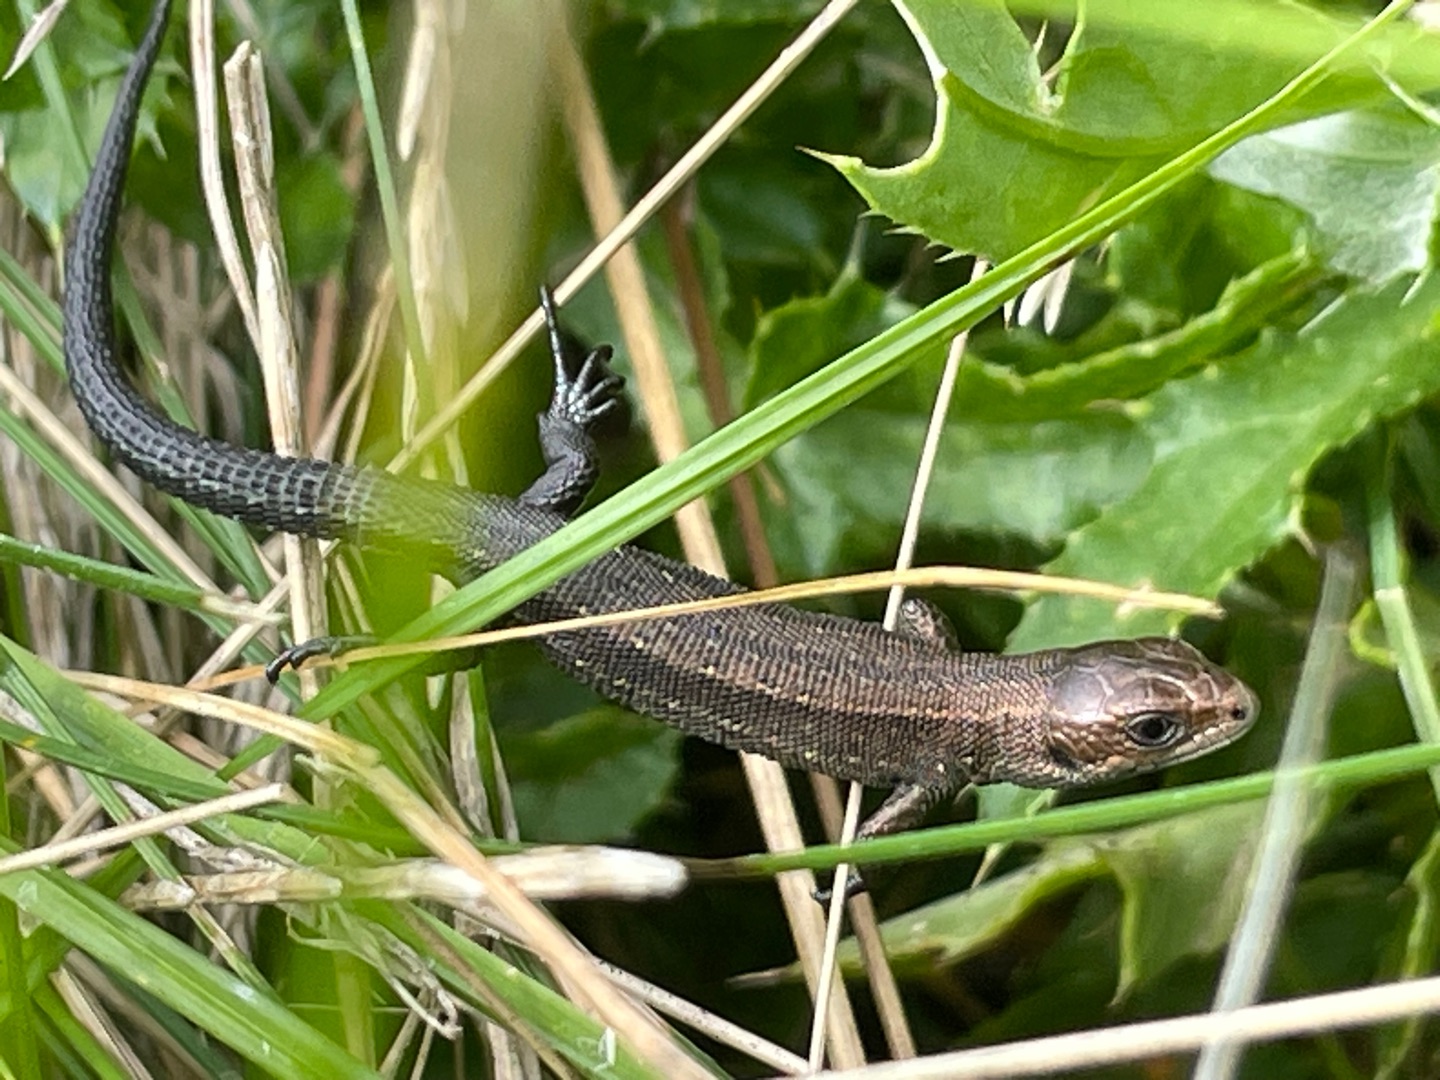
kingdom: Animalia
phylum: Chordata
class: Squamata
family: Lacertidae
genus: Zootoca
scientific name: Zootoca vivipara
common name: Skovfirben
